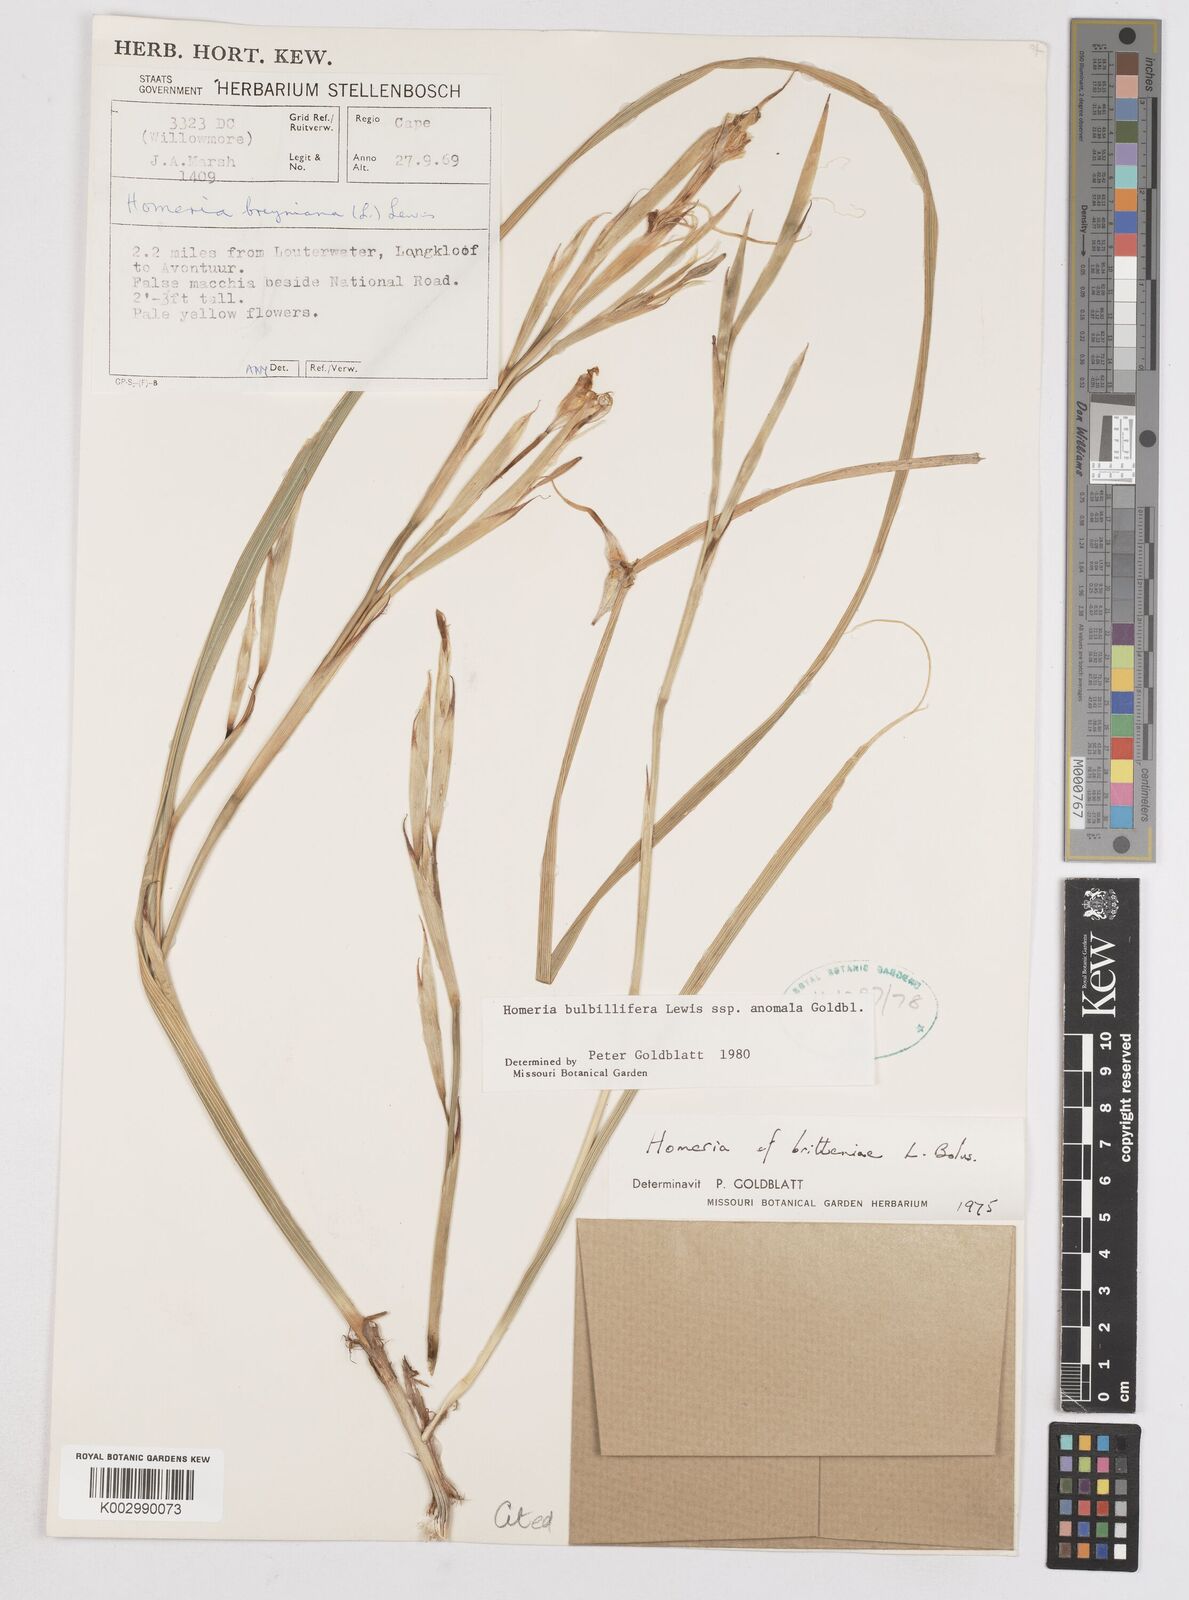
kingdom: Plantae
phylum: Tracheophyta
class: Liliopsida
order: Asparagales
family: Iridaceae
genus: Moraea
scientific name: Moraea bulbillifera
